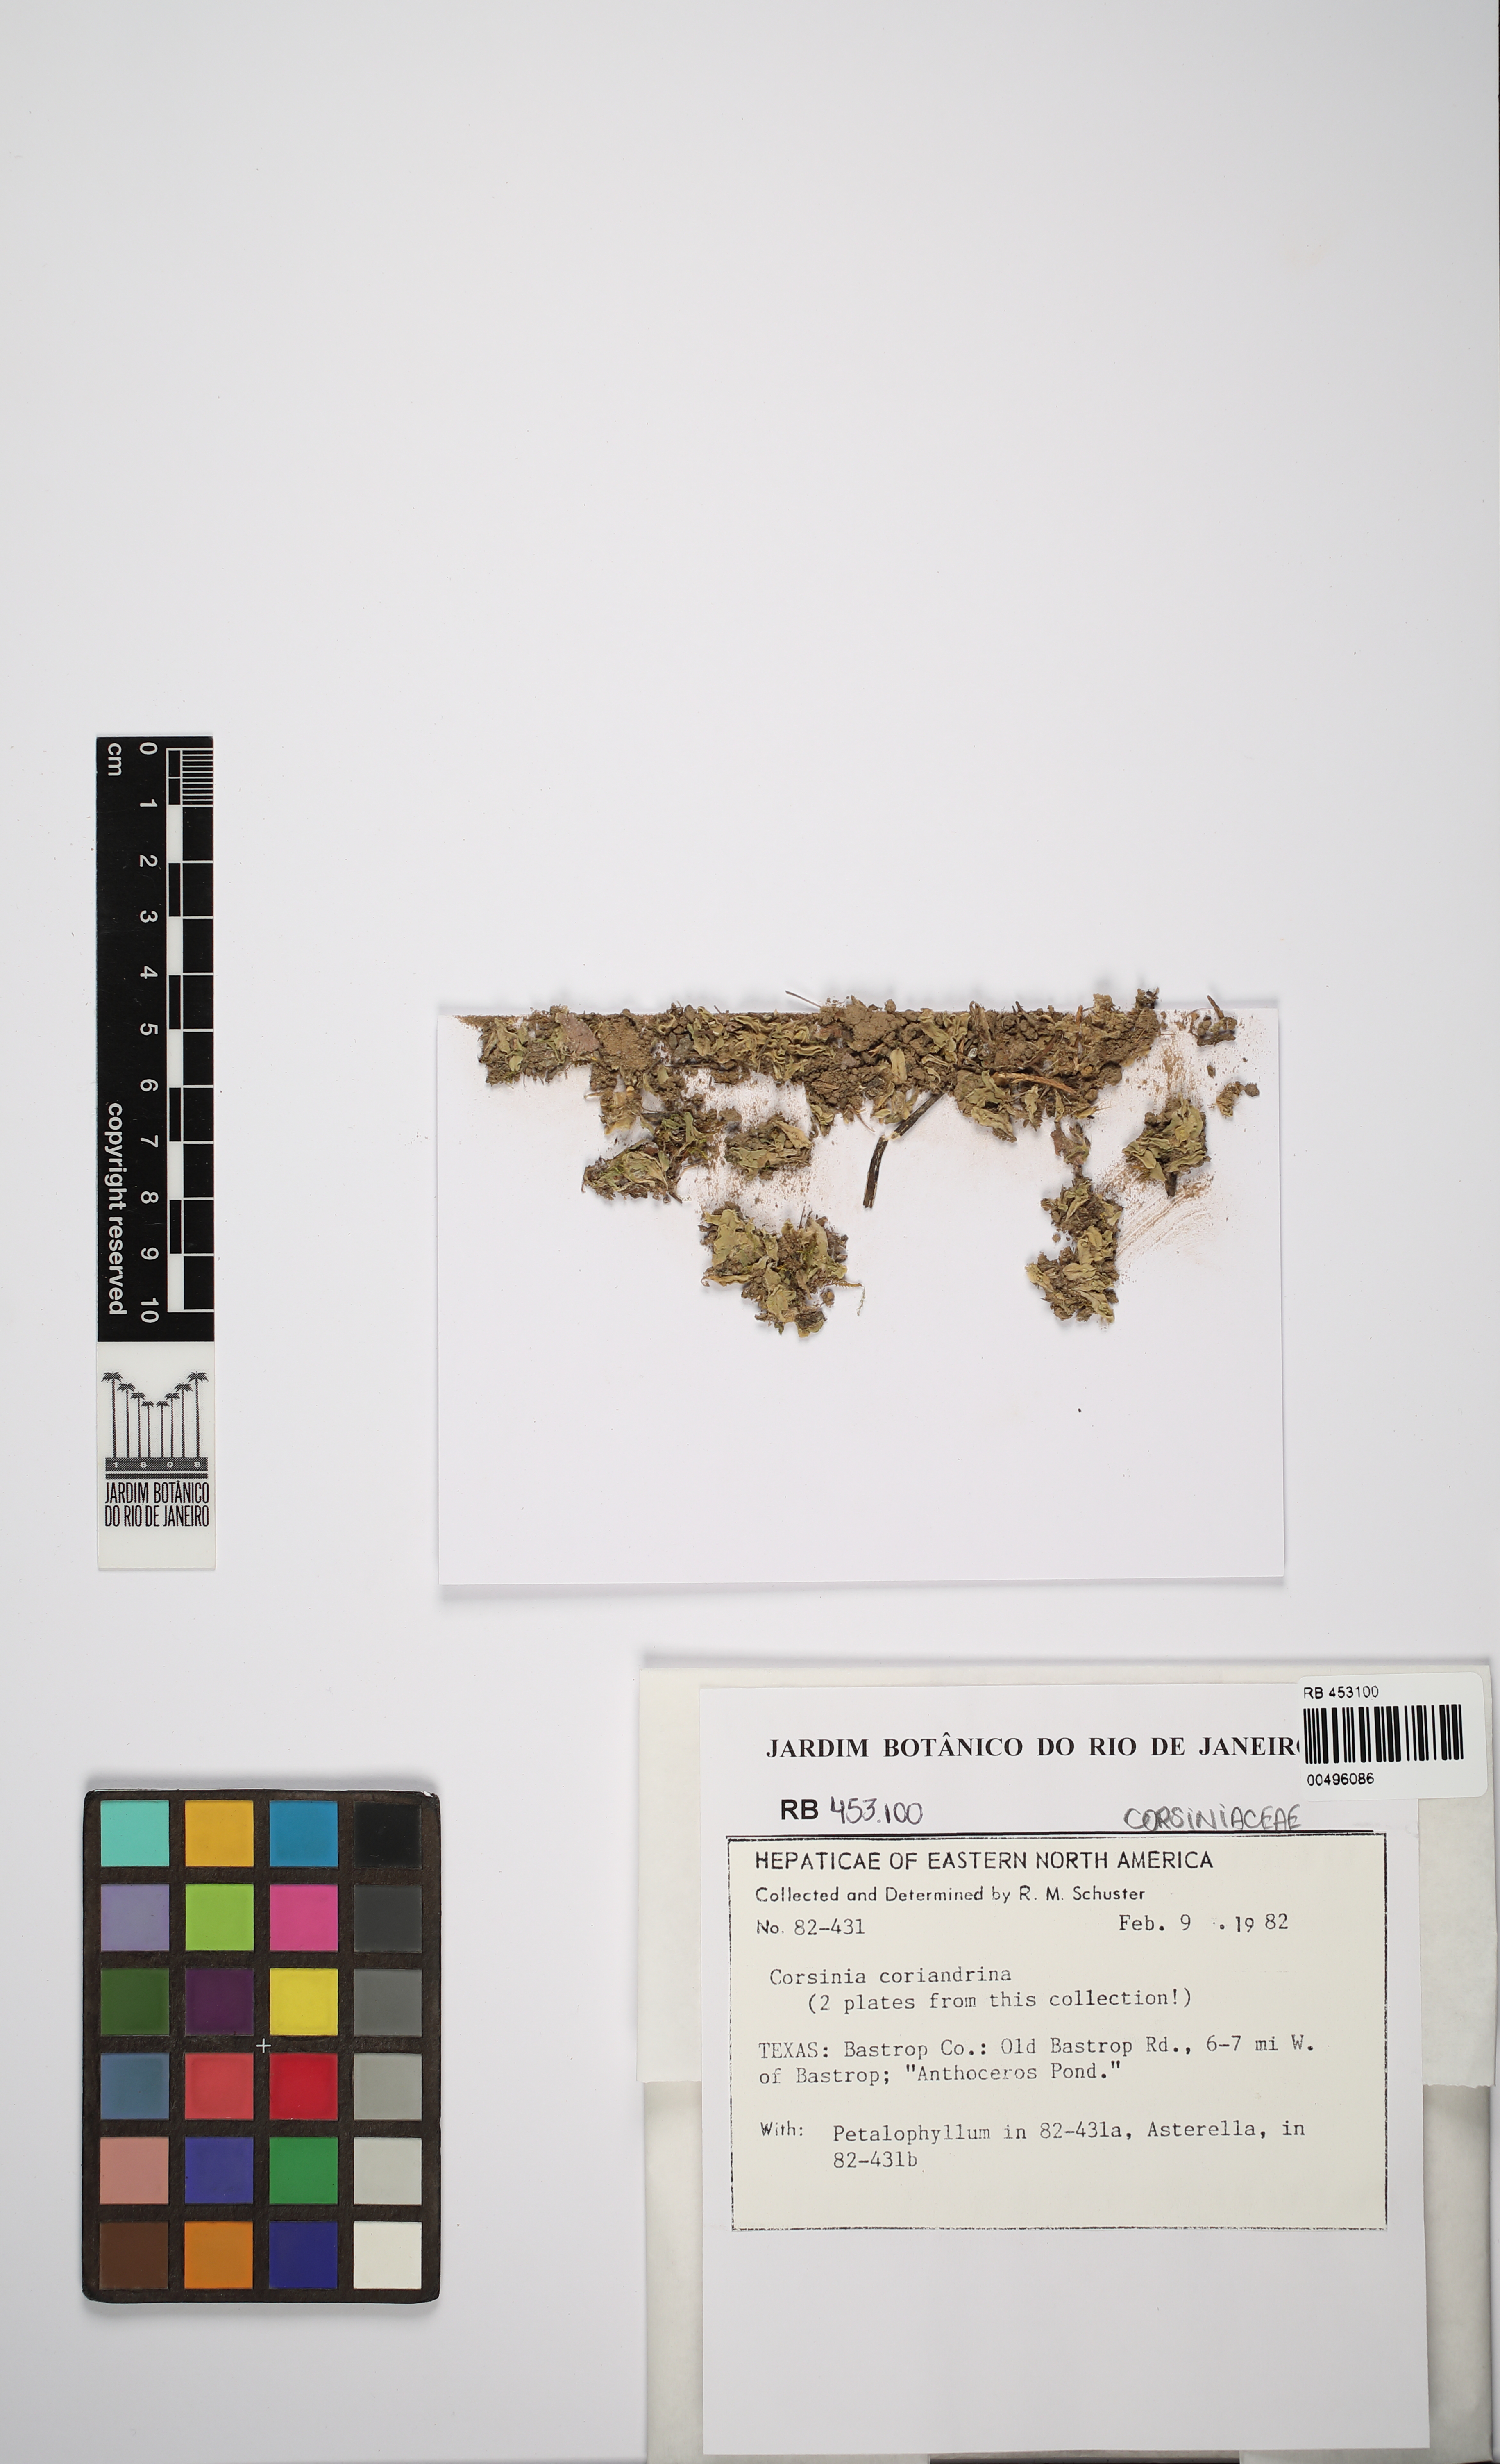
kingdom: Plantae
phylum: Marchantiophyta
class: Marchantiopsida
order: Marchantiales
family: Corsiniaceae
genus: Corsinia
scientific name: Corsinia coriandrina
